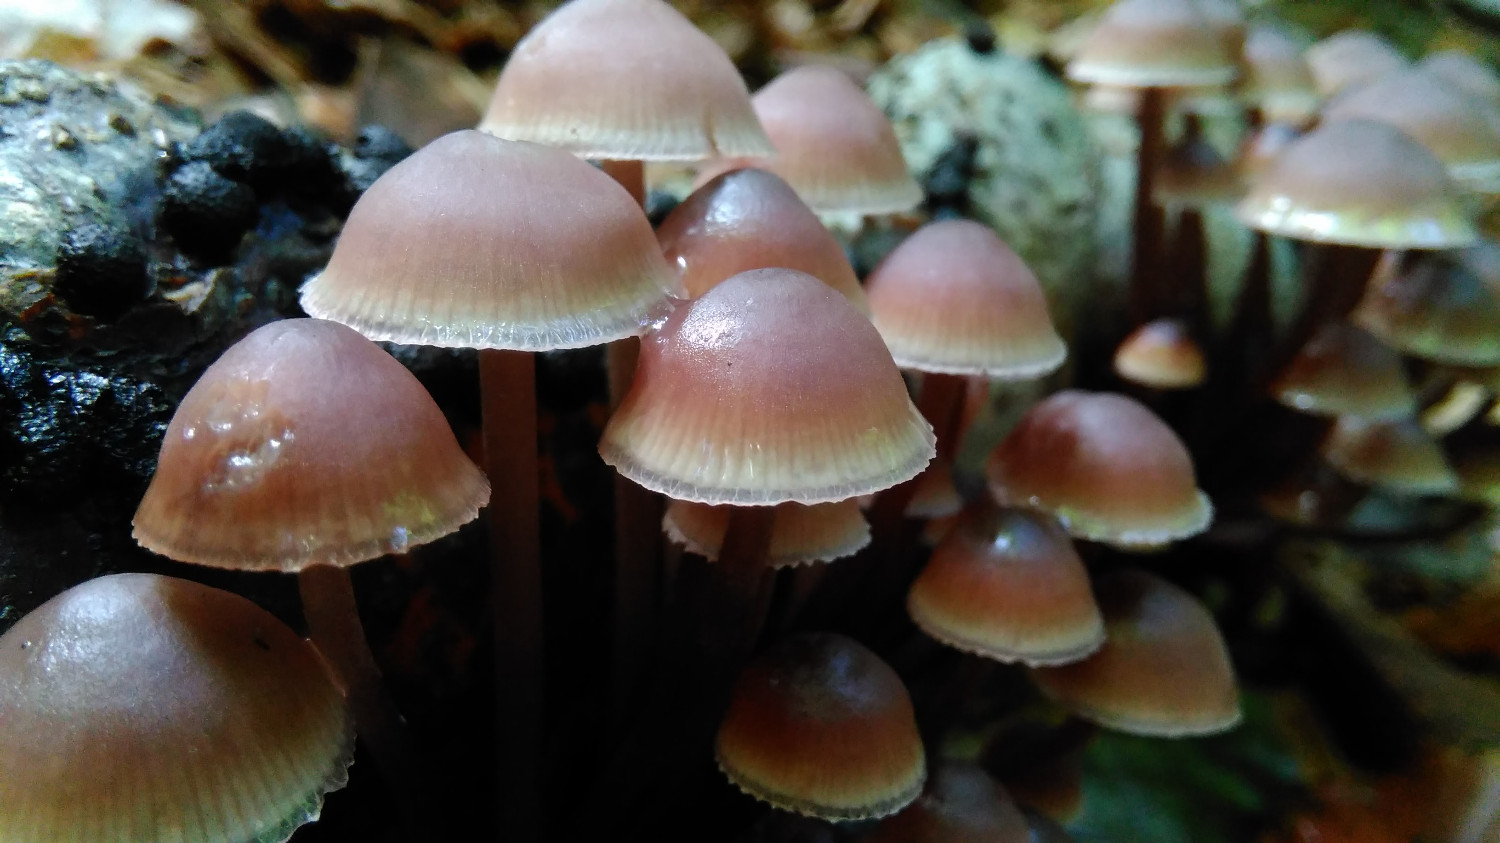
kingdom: Fungi
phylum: Basidiomycota
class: Agaricomycetes
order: Agaricales
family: Mycenaceae
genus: Mycena
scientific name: Mycena haematopus
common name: blødende huesvamp
